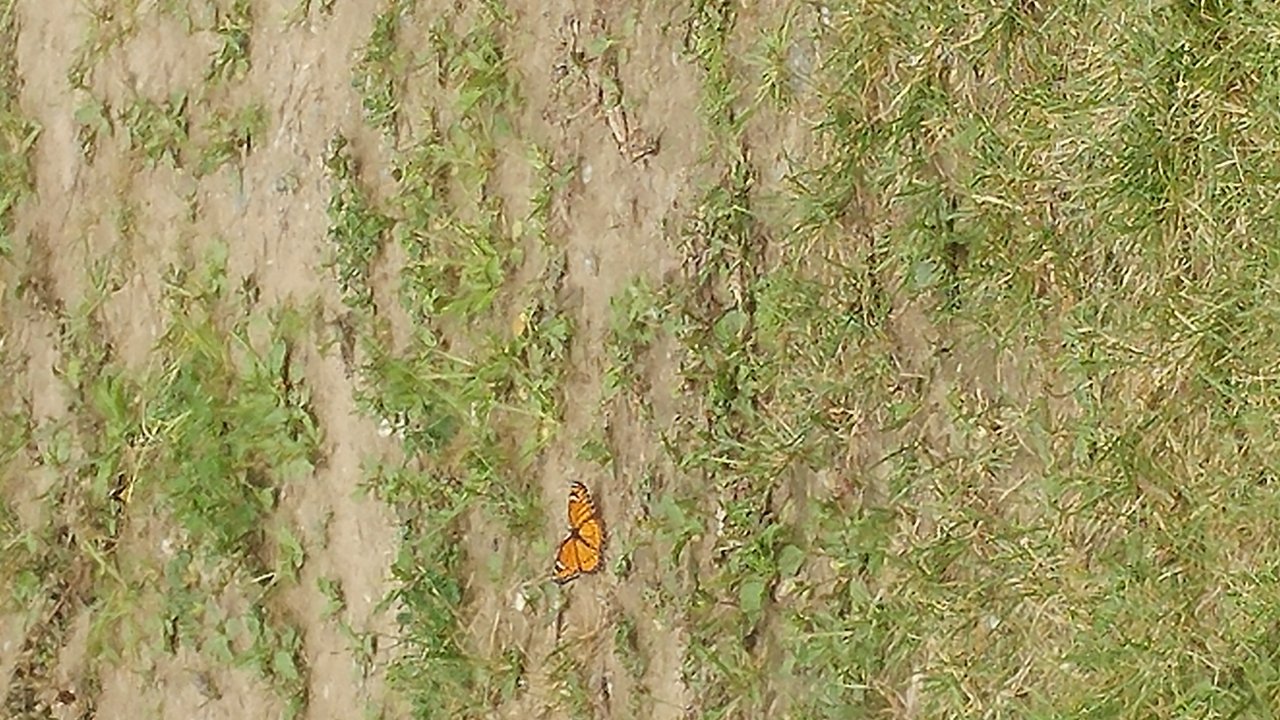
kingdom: Animalia
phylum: Arthropoda
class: Insecta
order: Lepidoptera
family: Nymphalidae
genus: Limenitis
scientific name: Limenitis archippus
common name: Viceroy
